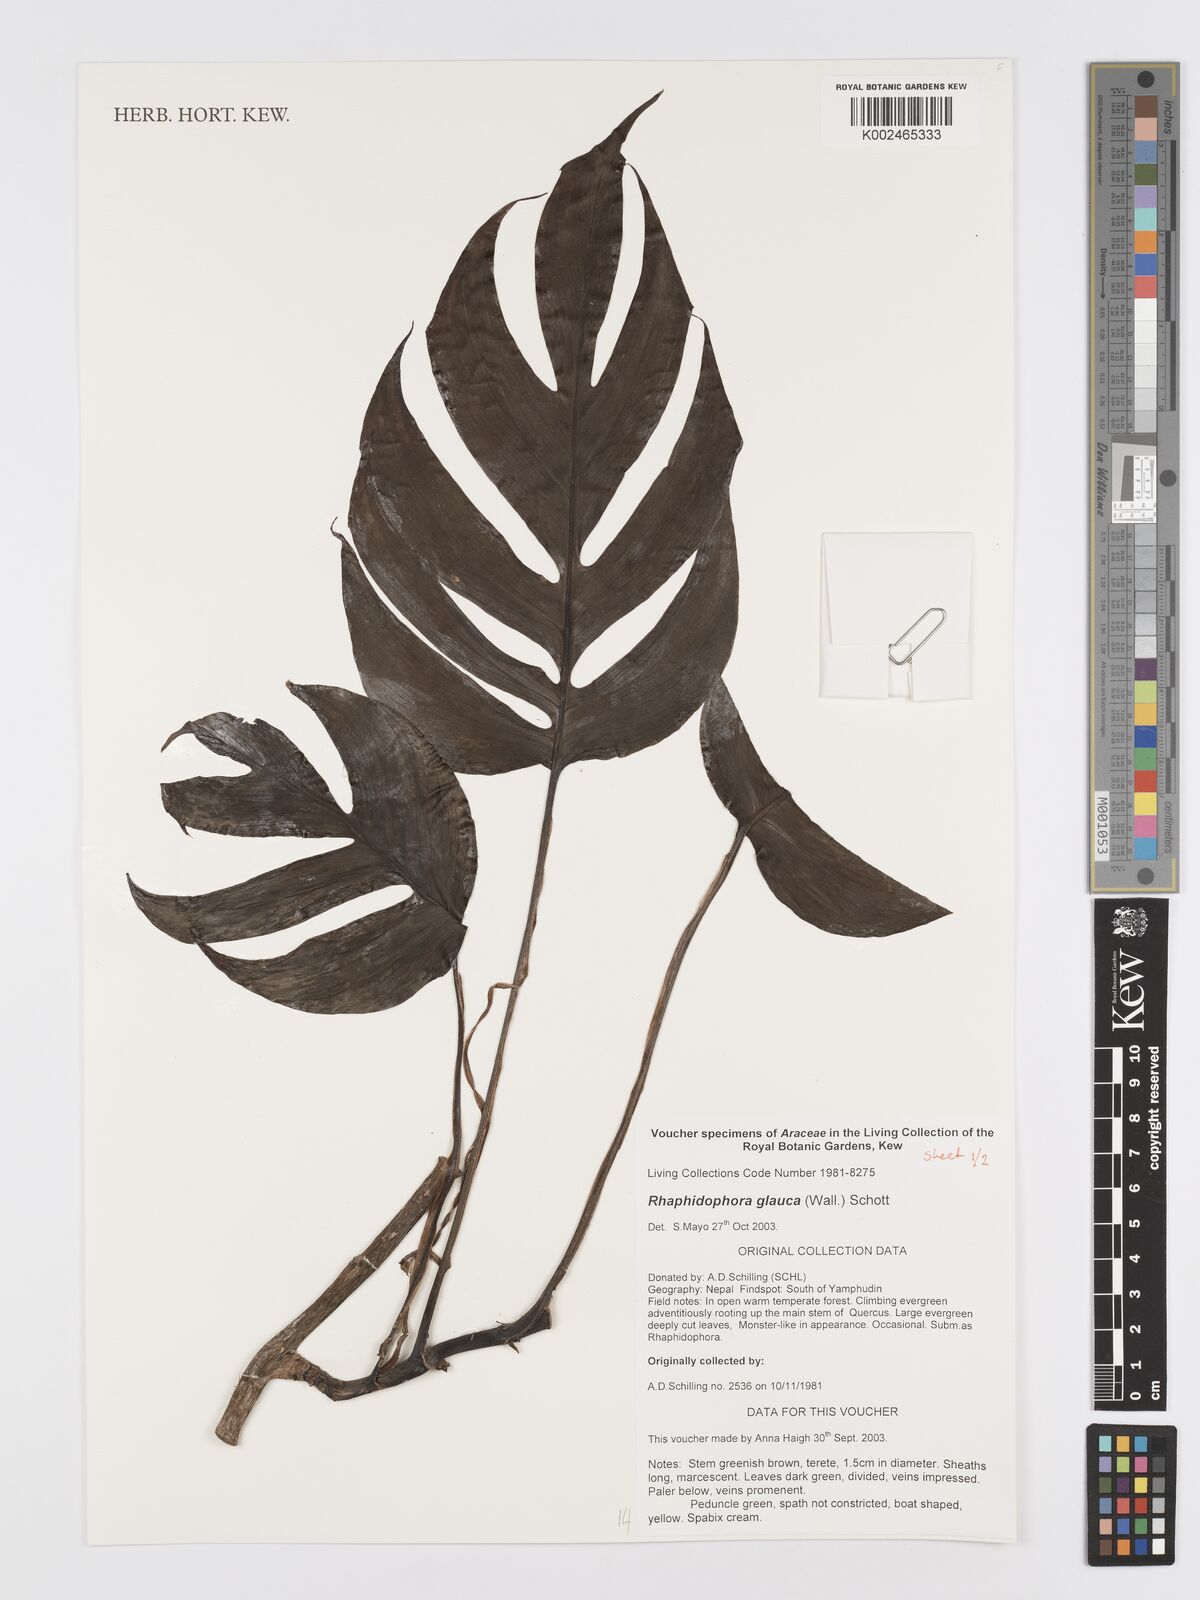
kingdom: Plantae
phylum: Tracheophyta
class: Liliopsida
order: Alismatales
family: Araceae
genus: Rhaphidophora
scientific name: Rhaphidophora glauca
